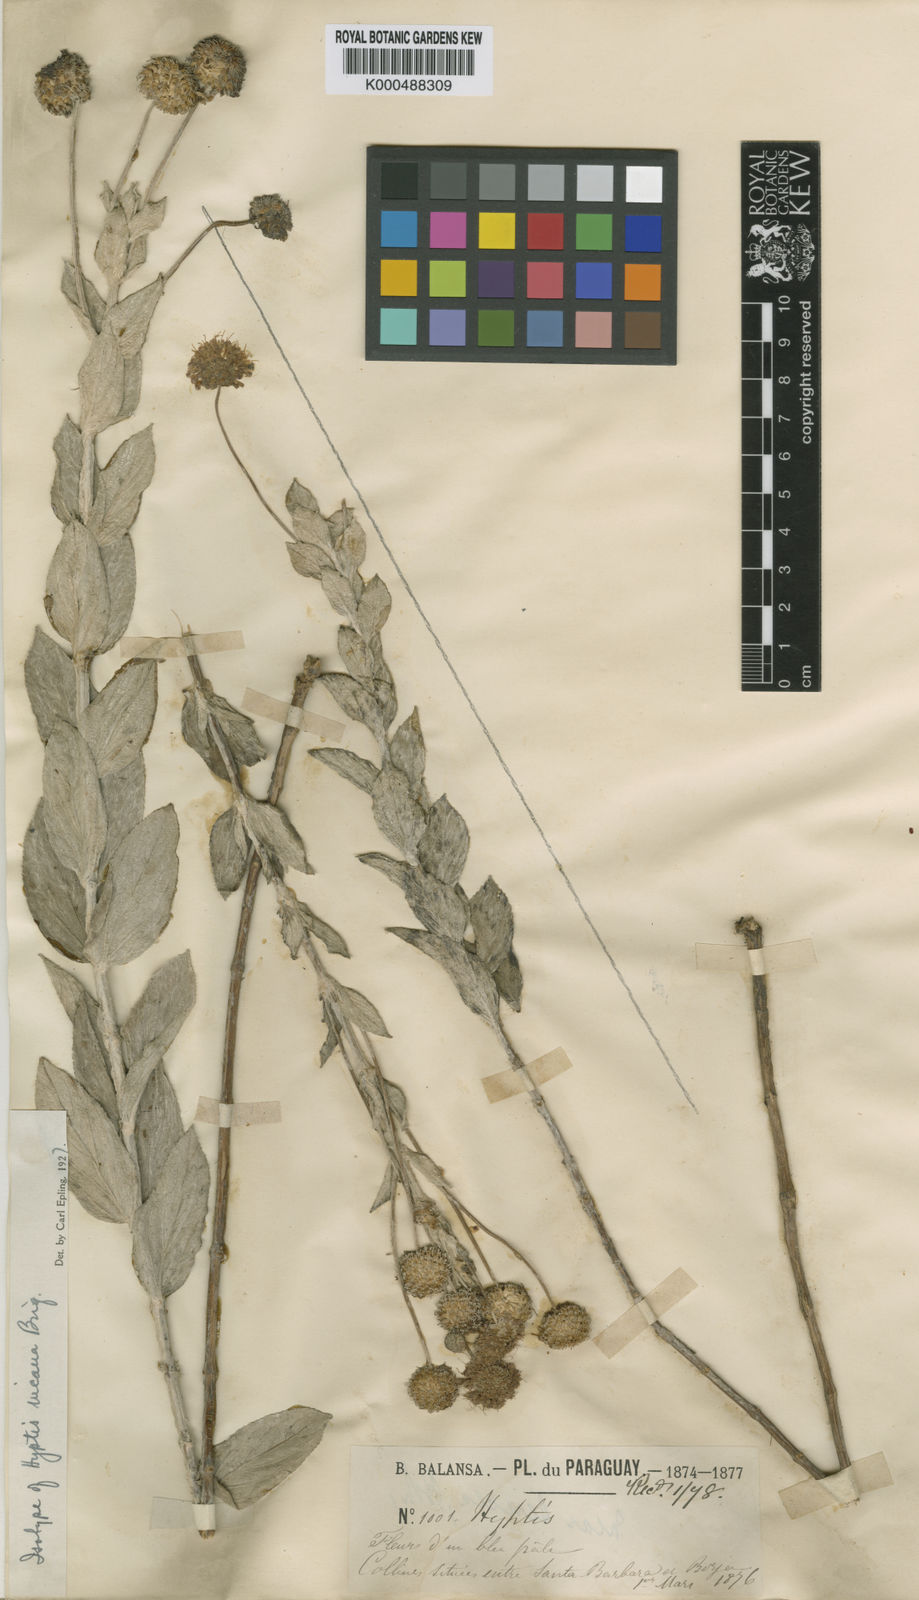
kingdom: Plantae
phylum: Tracheophyta
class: Magnoliopsida
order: Lamiales
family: Lamiaceae
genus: Cyanocephalus
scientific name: Cyanocephalus incanus
